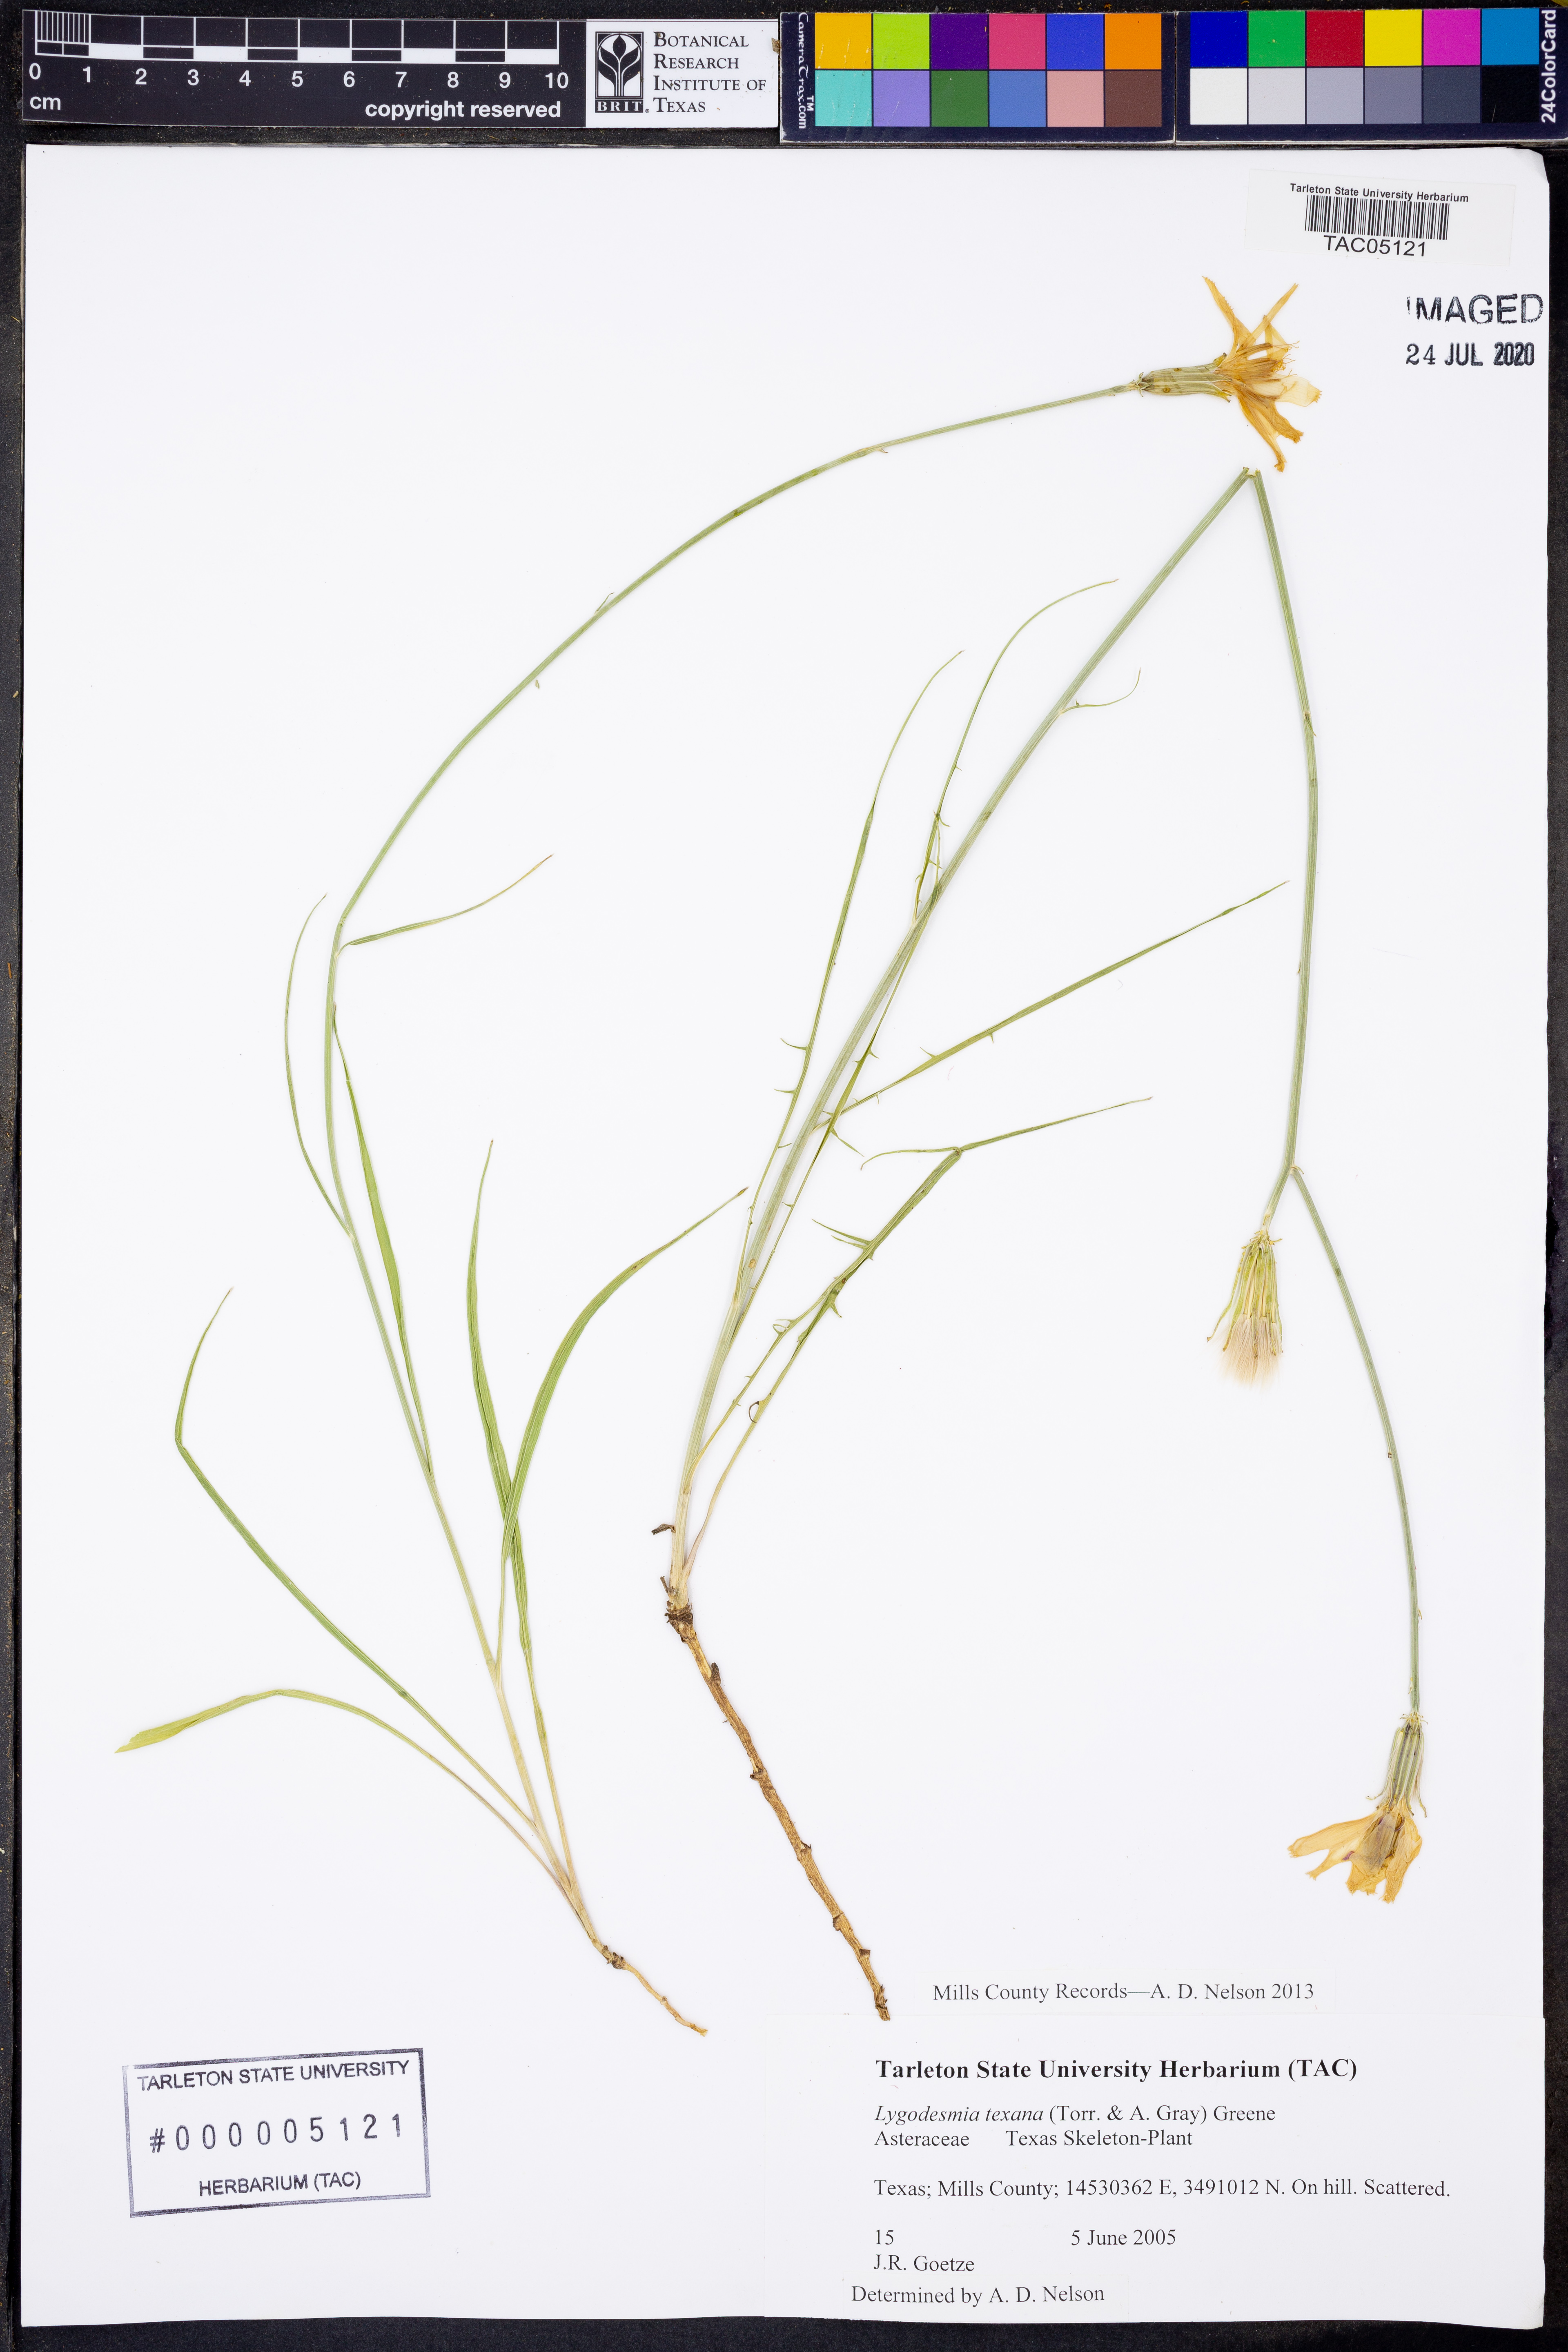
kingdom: Plantae
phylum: Tracheophyta
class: Magnoliopsida
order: Asterales
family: Asteraceae
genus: Lygodesmia
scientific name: Lygodesmia texana
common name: Texas skeleton-plant
